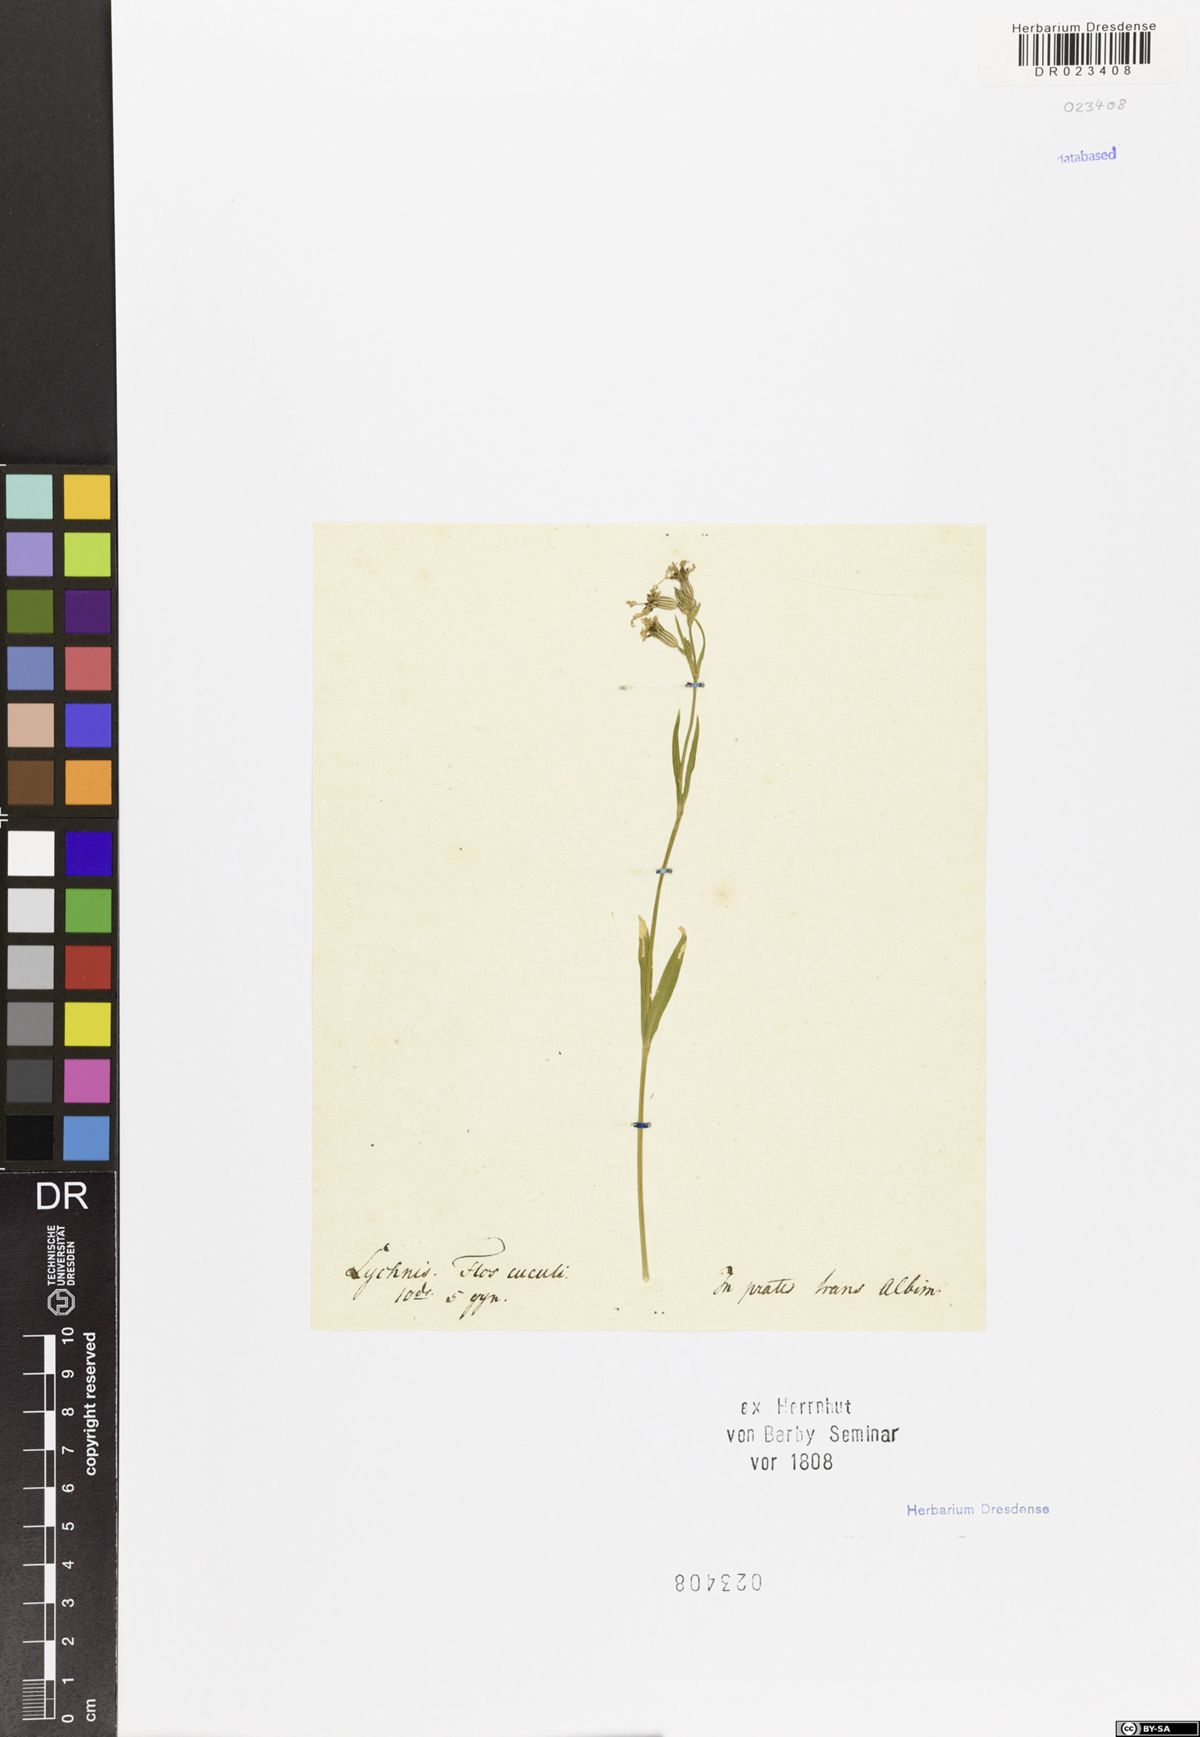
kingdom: Plantae
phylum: Tracheophyta
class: Magnoliopsida
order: Caryophyllales
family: Caryophyllaceae
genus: Silene
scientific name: Silene flos-cuculi
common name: Ragged-robin
